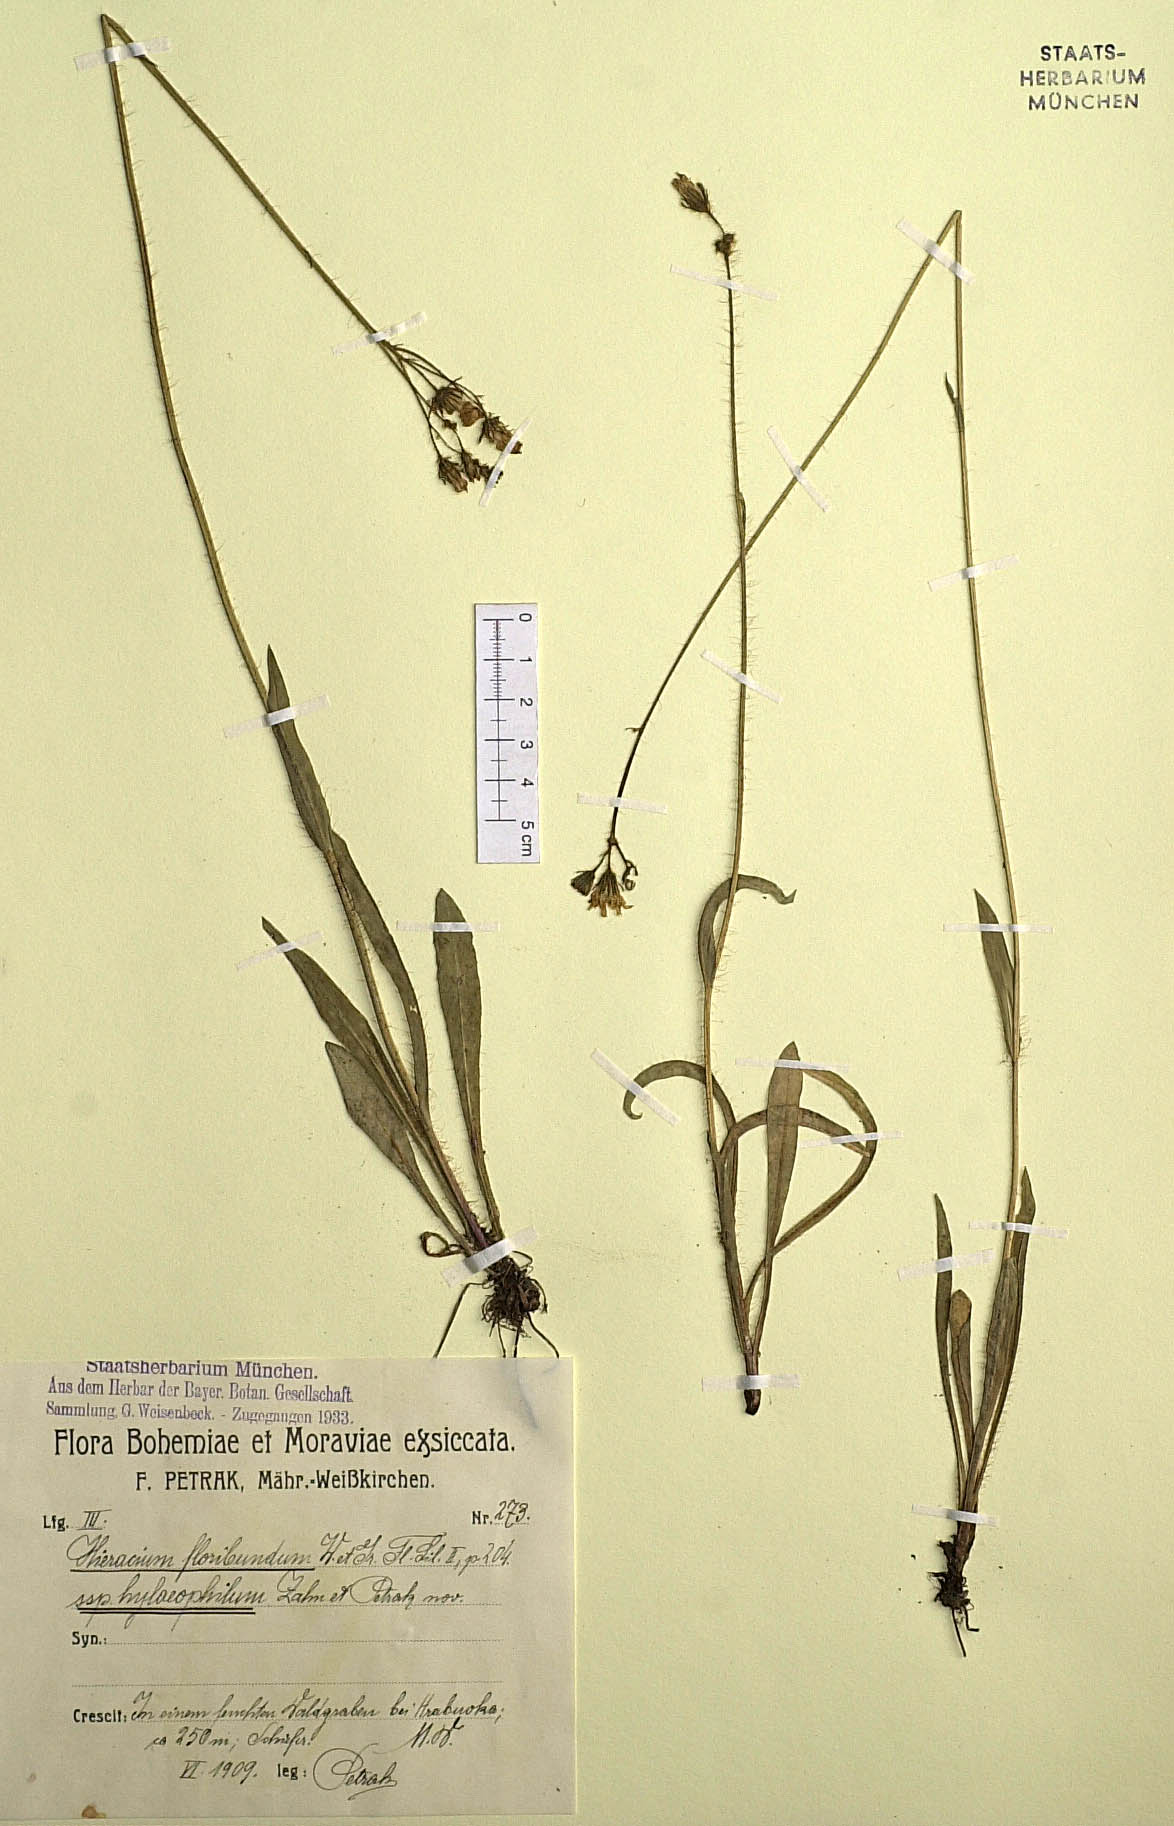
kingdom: Plantae
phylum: Tracheophyta
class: Magnoliopsida
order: Asterales
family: Asteraceae
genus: Pilosella
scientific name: Pilosella floribunda
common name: Glaucous hawkweed
